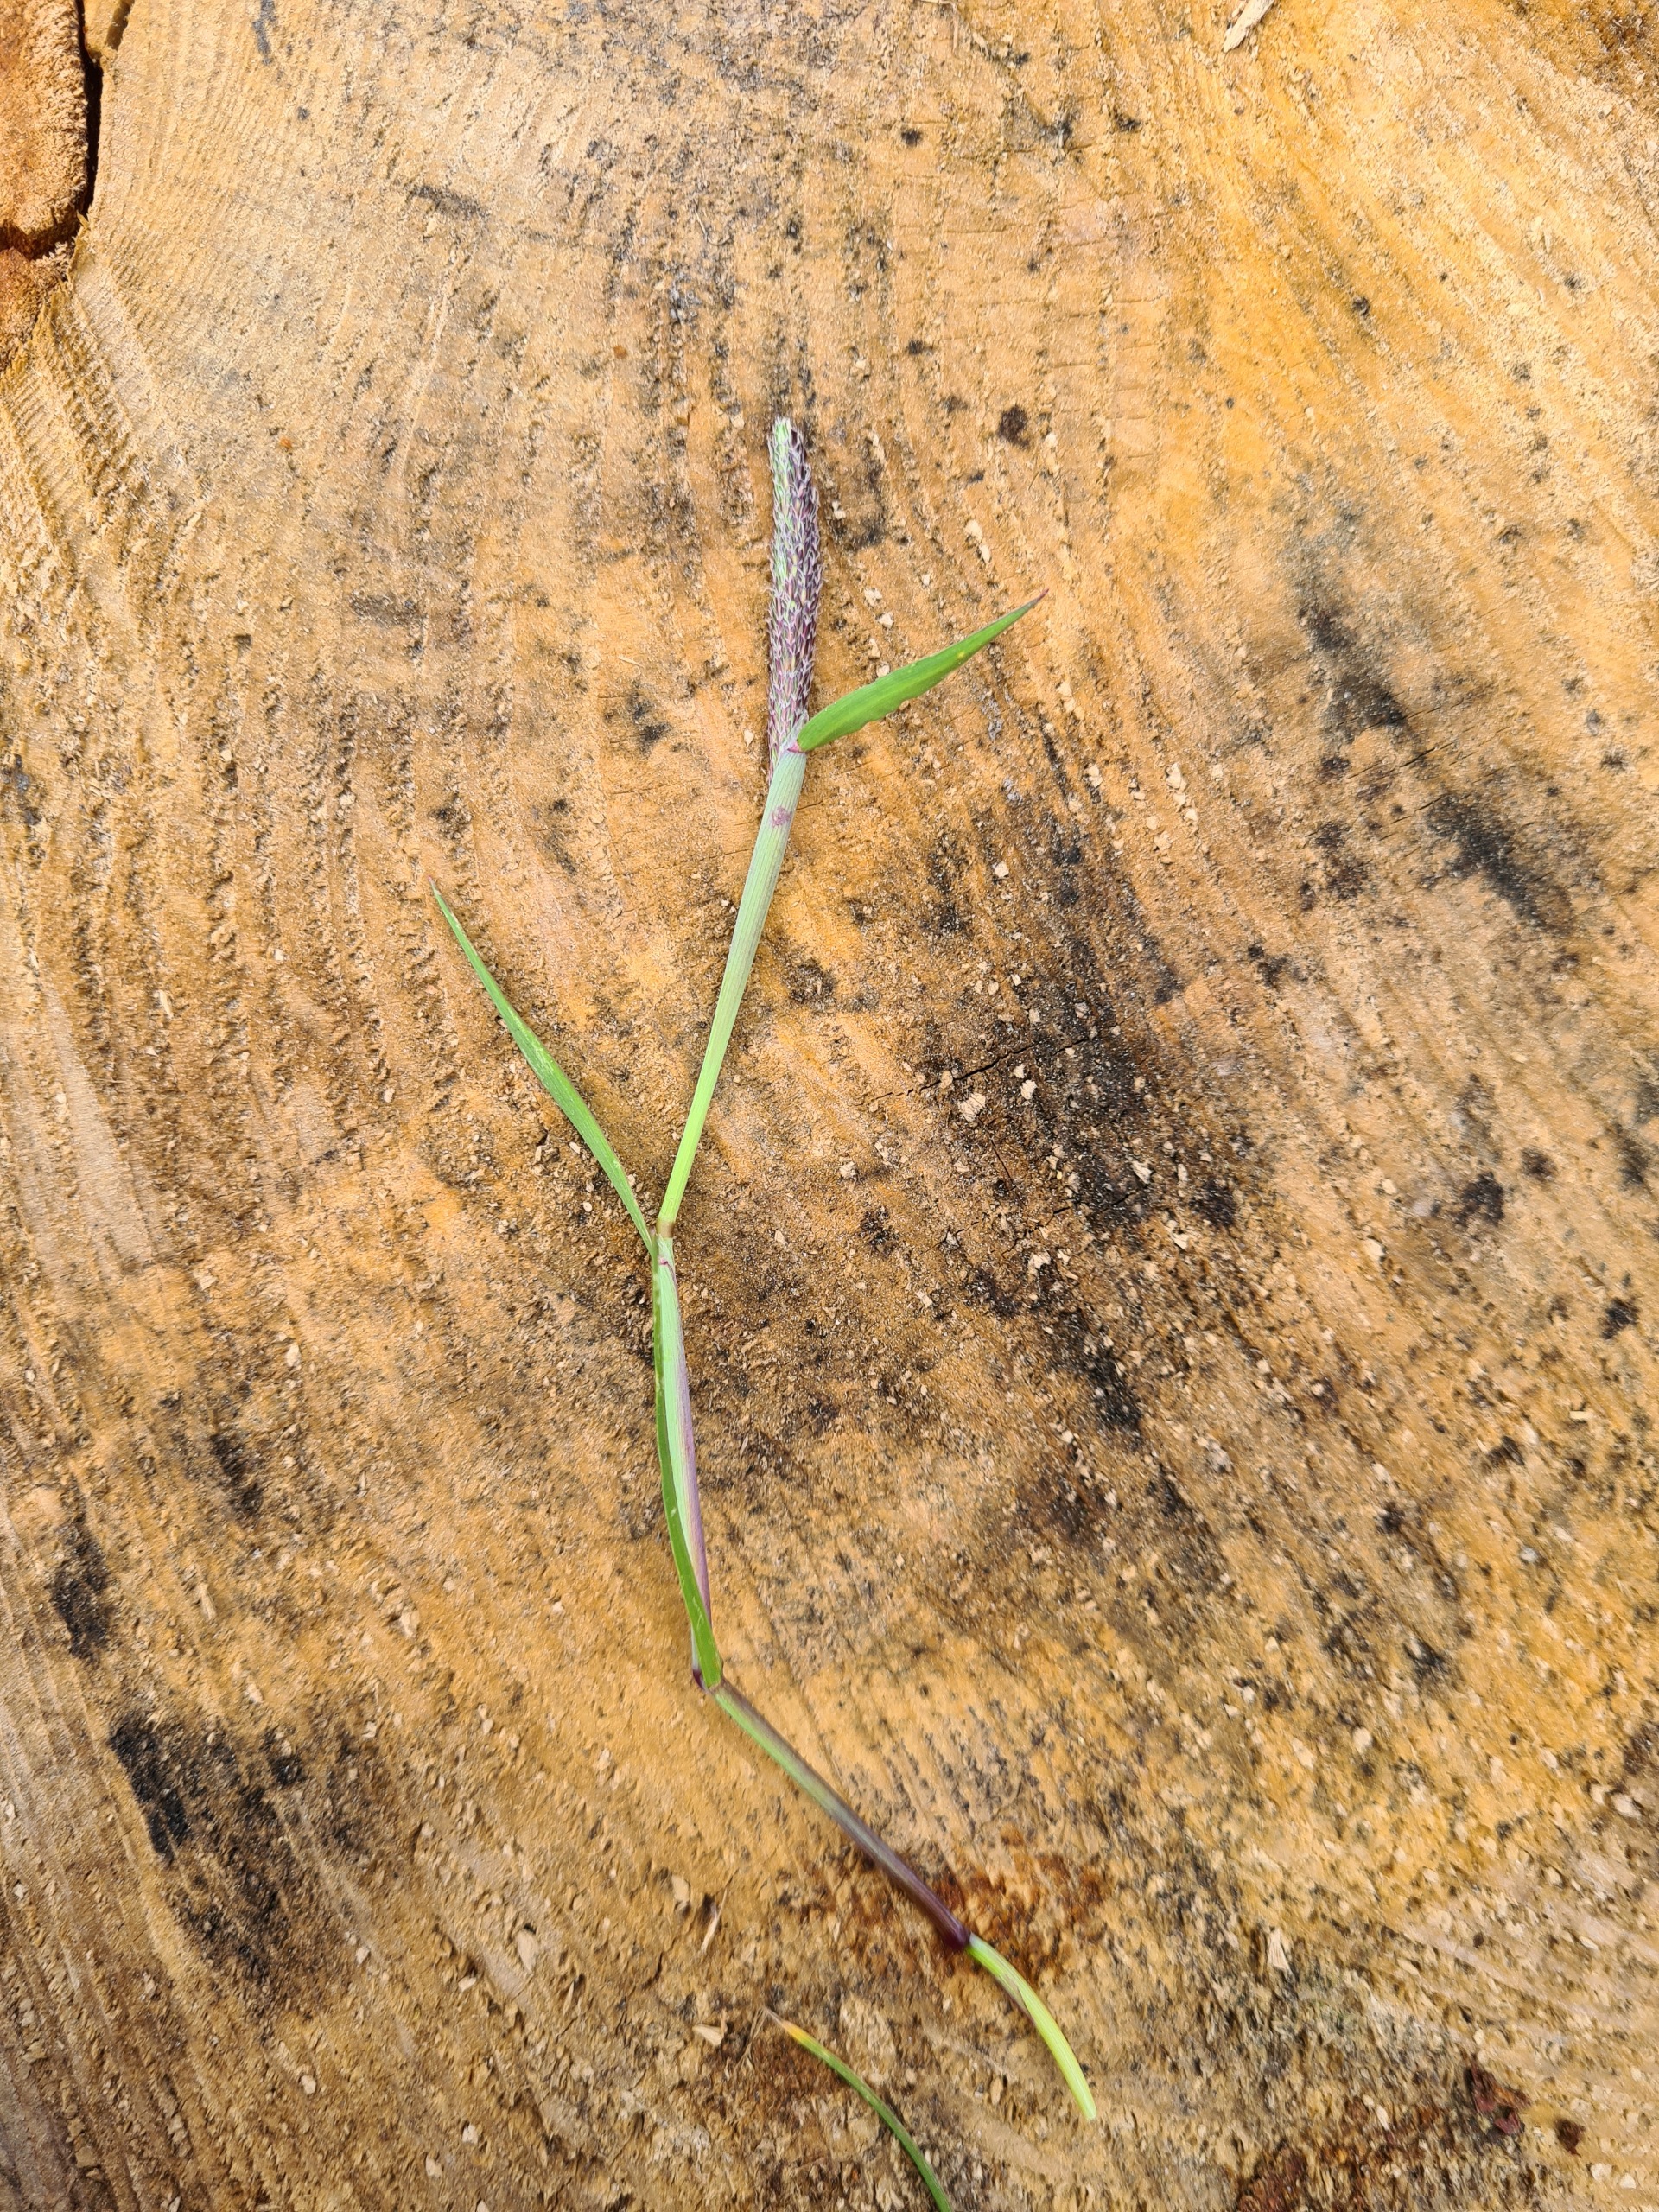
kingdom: Plantae
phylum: Tracheophyta
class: Liliopsida
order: Poales
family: Poaceae
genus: Alopecurus
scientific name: Alopecurus geniculatus
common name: Knæbøjet rævehale
